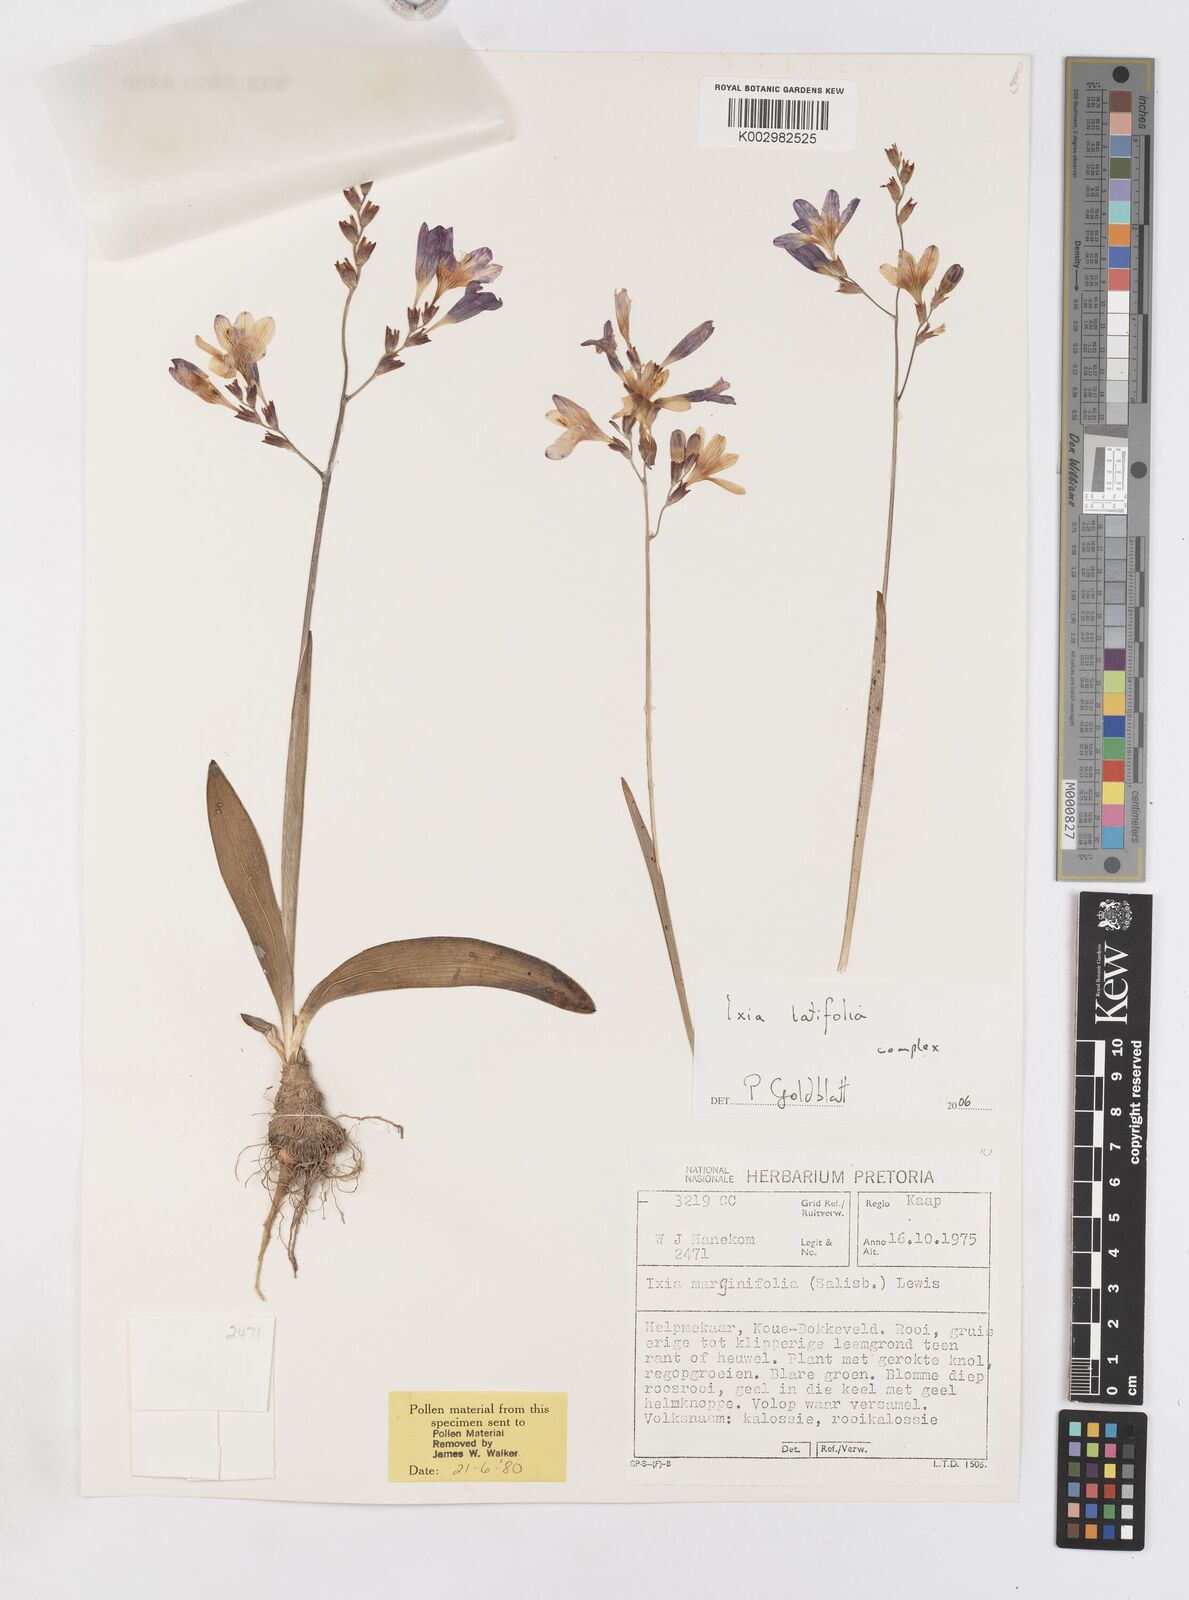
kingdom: Plantae
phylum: Tracheophyta
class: Liliopsida
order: Asparagales
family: Iridaceae
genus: Ixia
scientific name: Ixia latifolia
